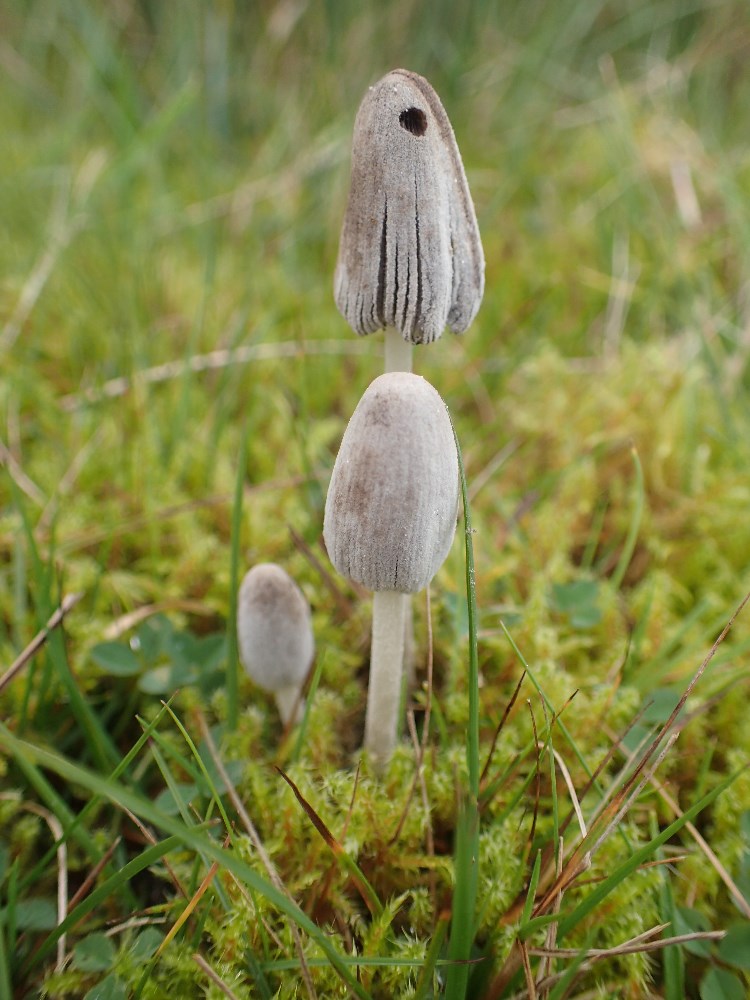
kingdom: Fungi
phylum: Basidiomycota
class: Agaricomycetes
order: Agaricales
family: Psathyrellaceae
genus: Coprinopsis
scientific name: Coprinopsis
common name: blækhat
